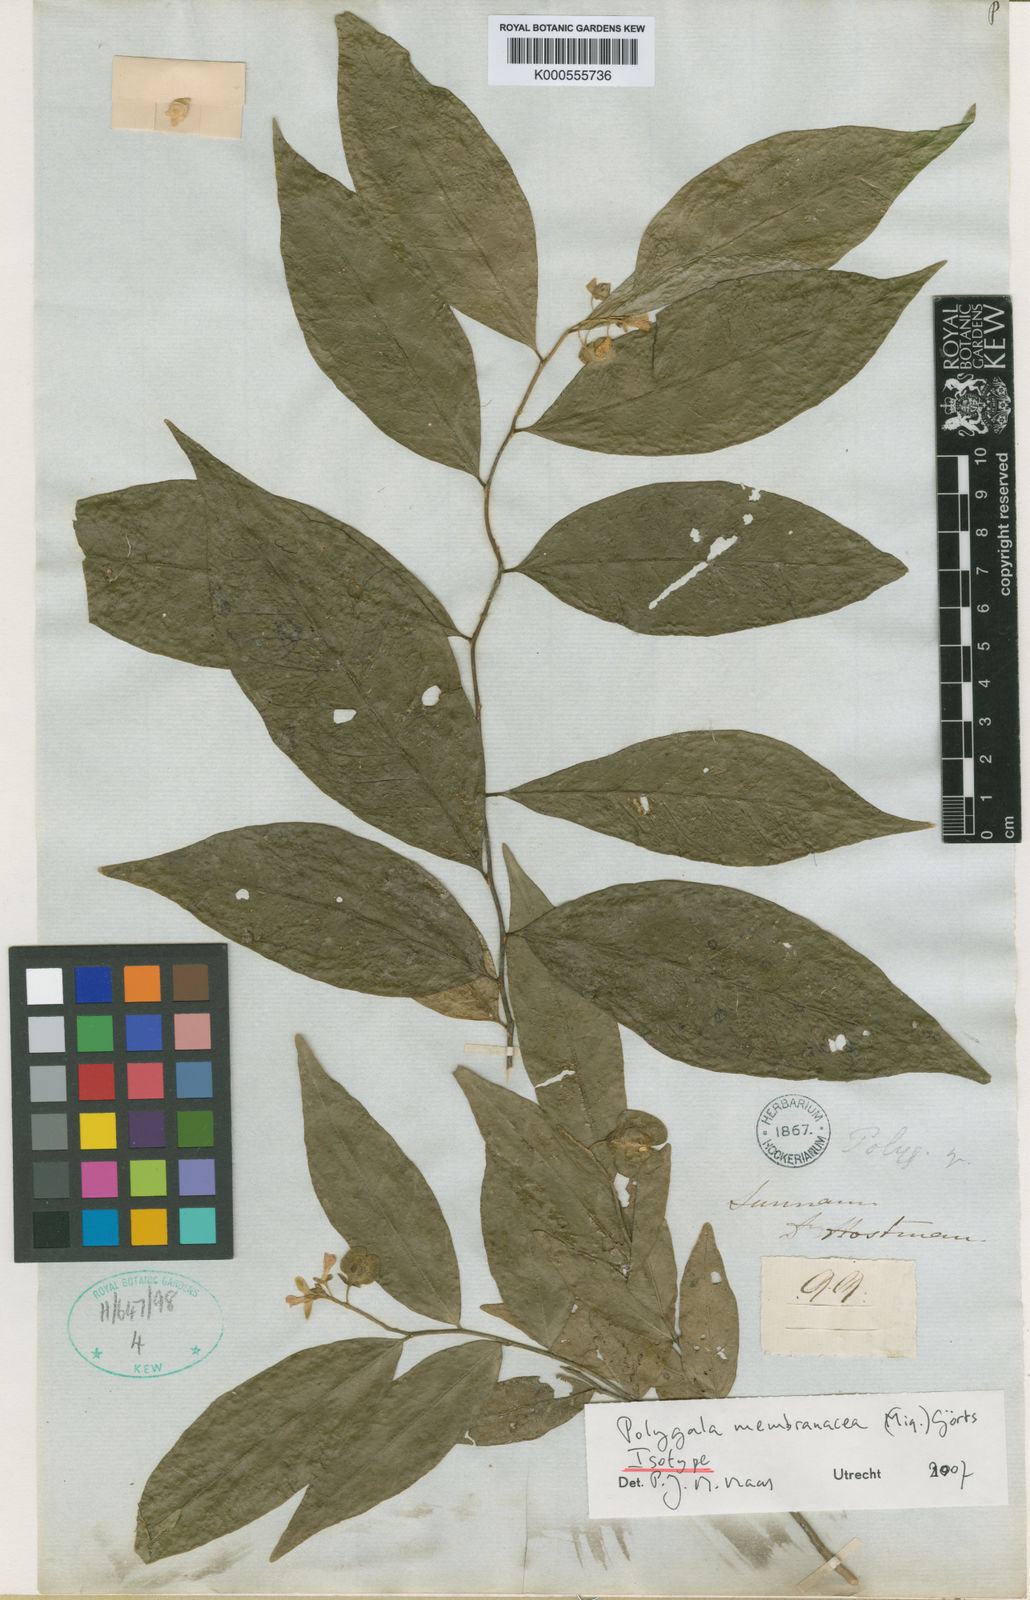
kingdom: Plantae
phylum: Tracheophyta
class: Magnoliopsida
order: Fabales
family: Polygalaceae
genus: Polygala
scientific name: Polygala membranacea
